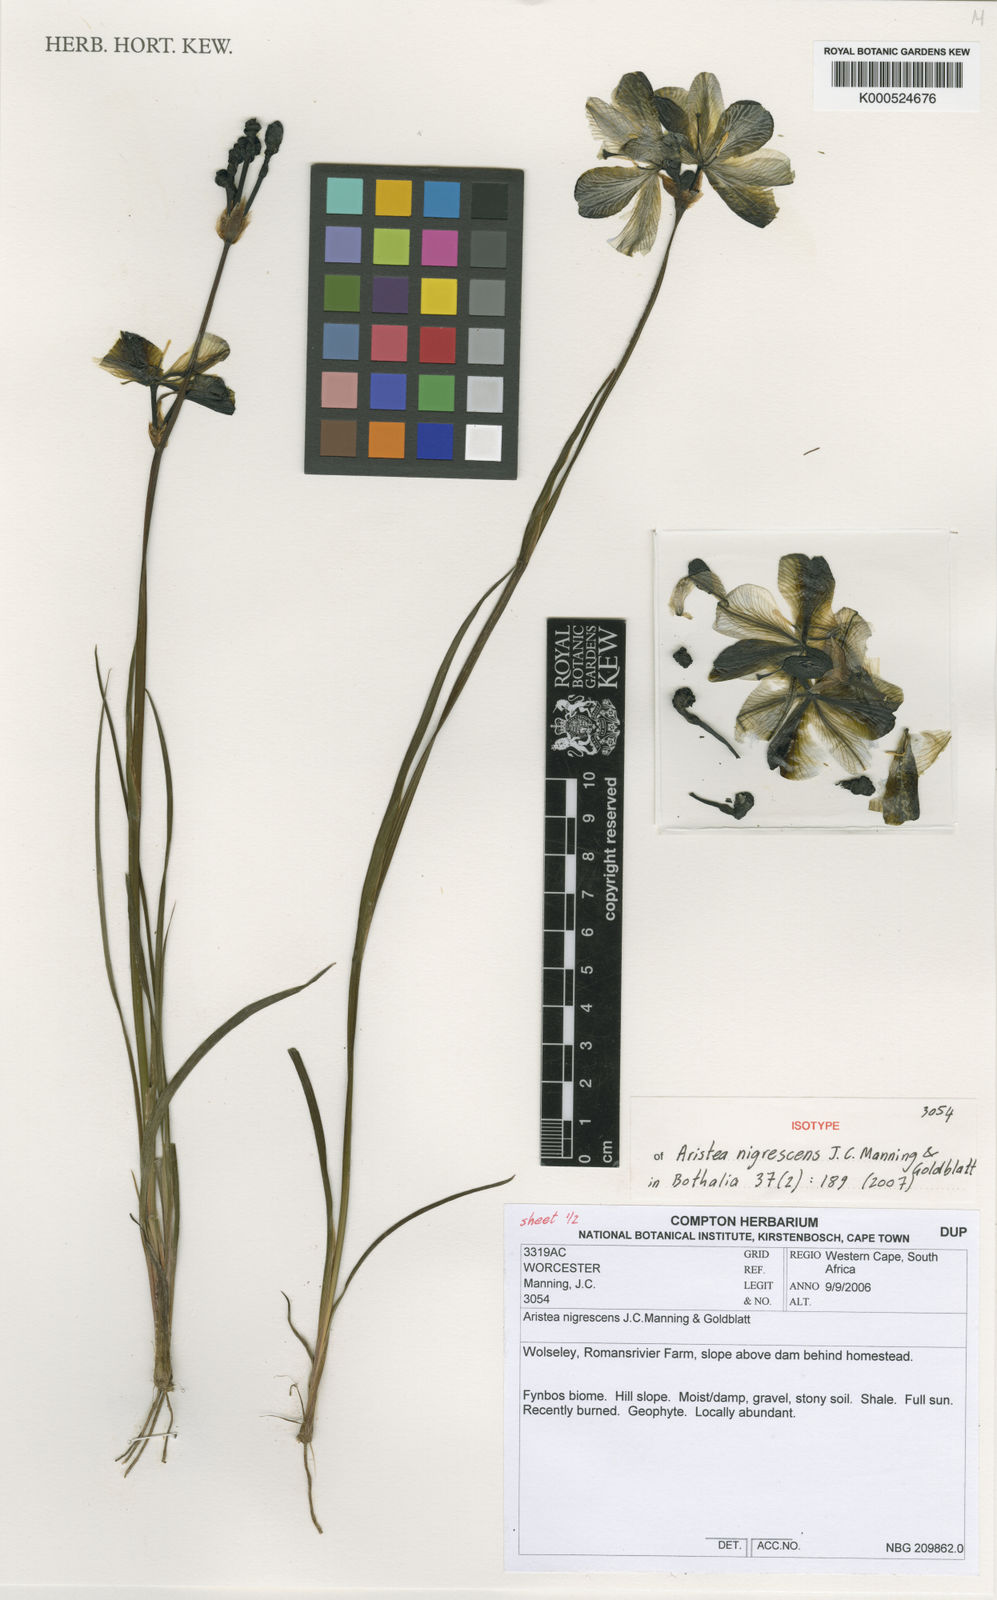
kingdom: Plantae
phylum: Tracheophyta
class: Liliopsida
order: Asparagales
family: Iridaceae
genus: Aristea
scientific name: Aristea nigrescens
